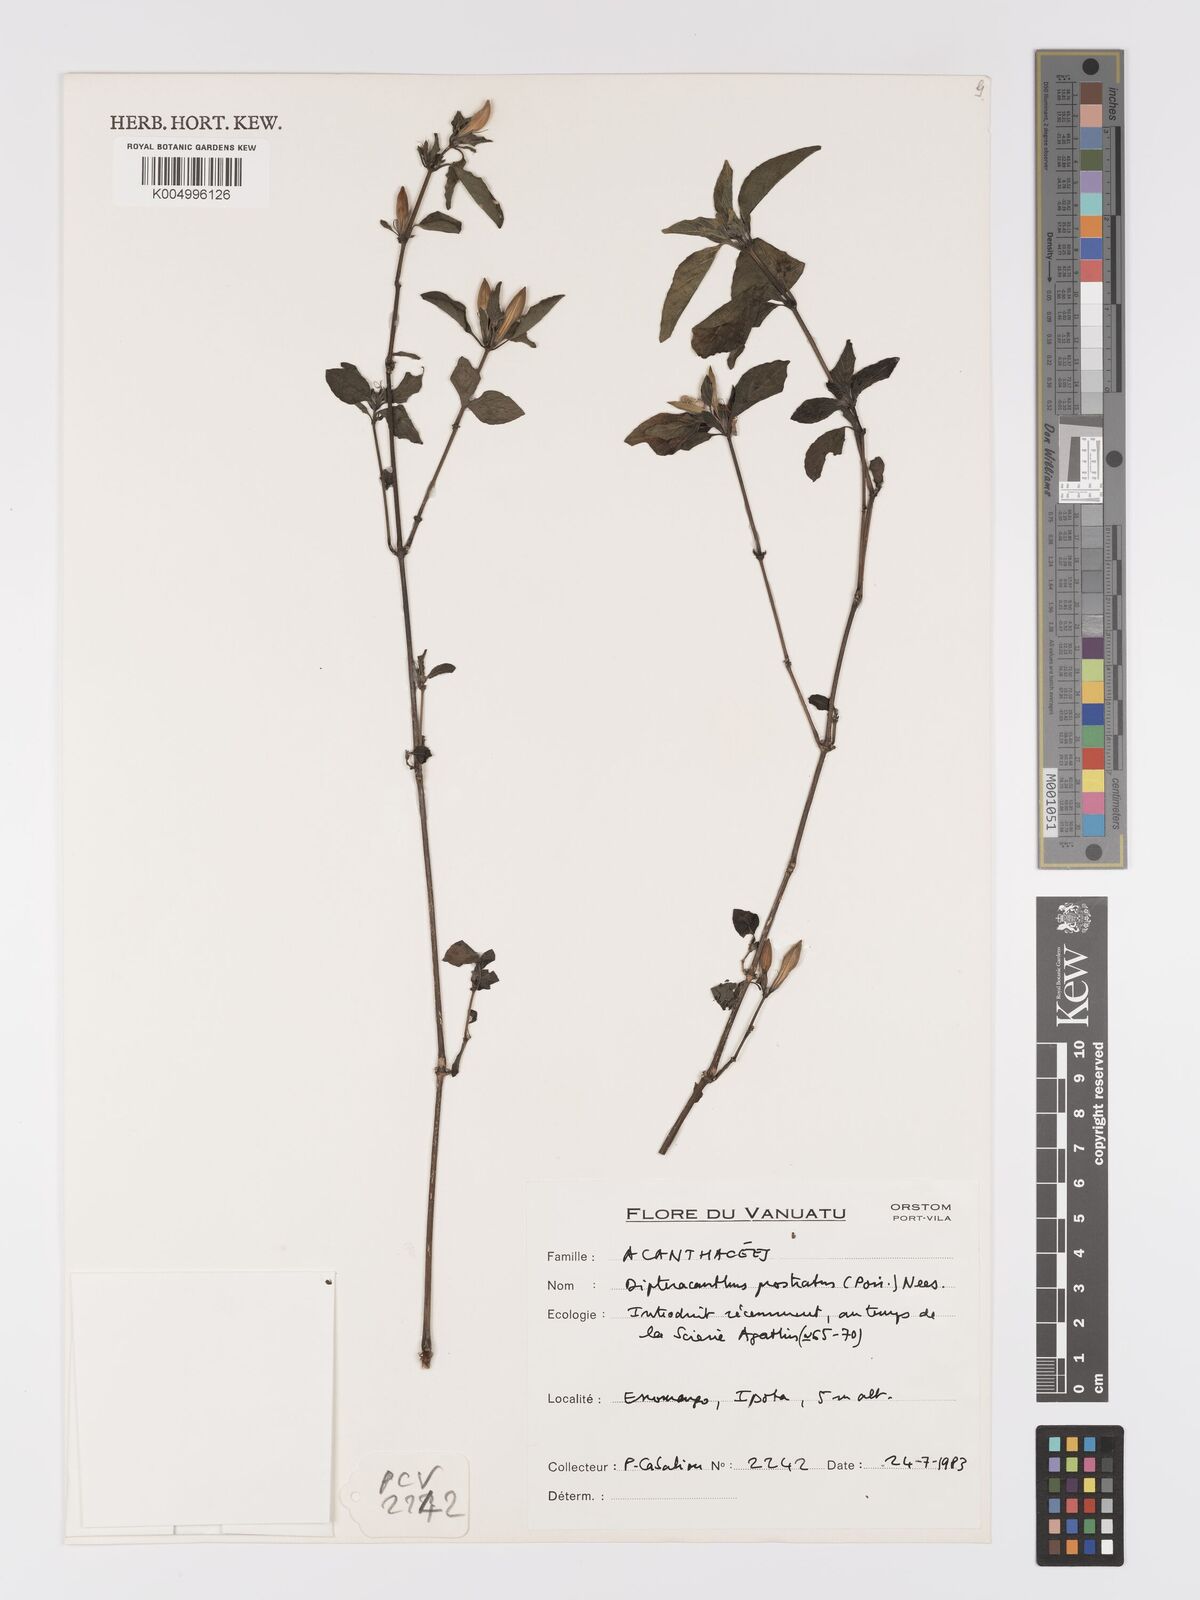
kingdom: Plantae
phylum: Tracheophyta
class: Magnoliopsida
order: Lamiales
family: Acanthaceae
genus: Ruellia
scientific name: Ruellia
